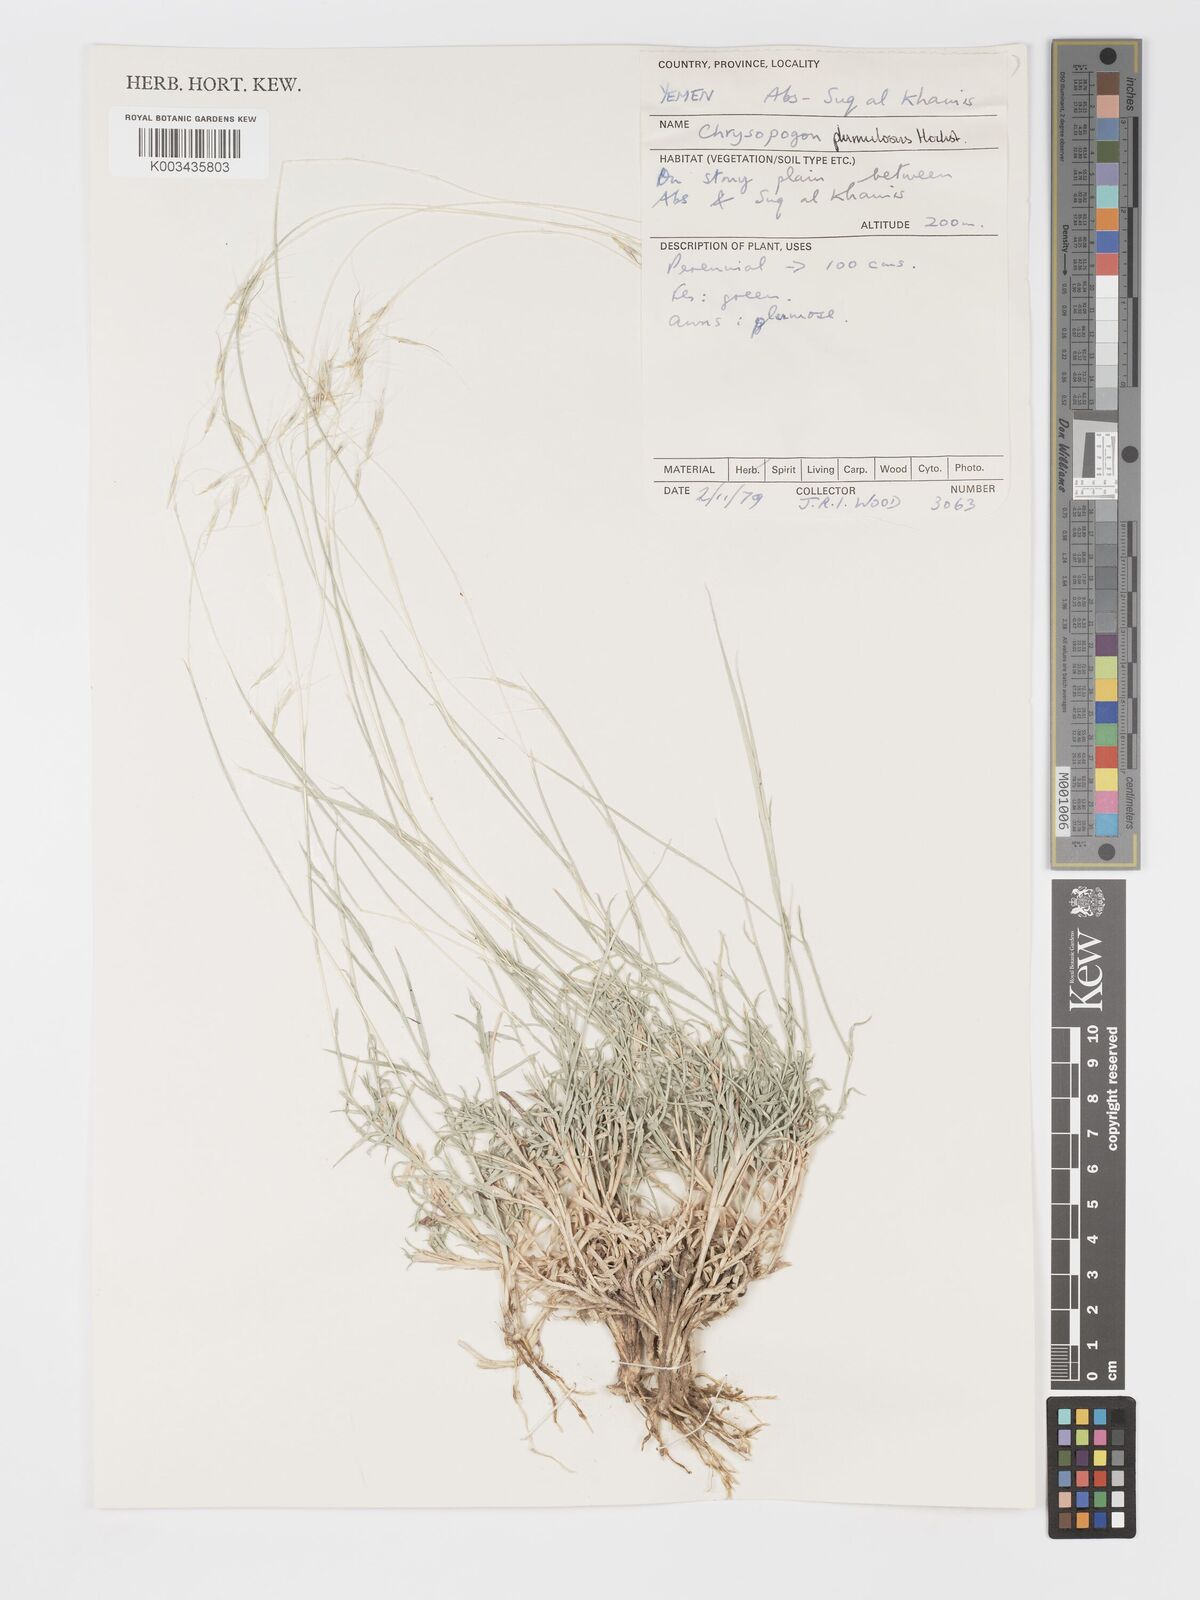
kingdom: Plantae
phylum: Tracheophyta
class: Liliopsida
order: Poales
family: Poaceae
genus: Chrysopogon
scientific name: Chrysopogon plumulosus
